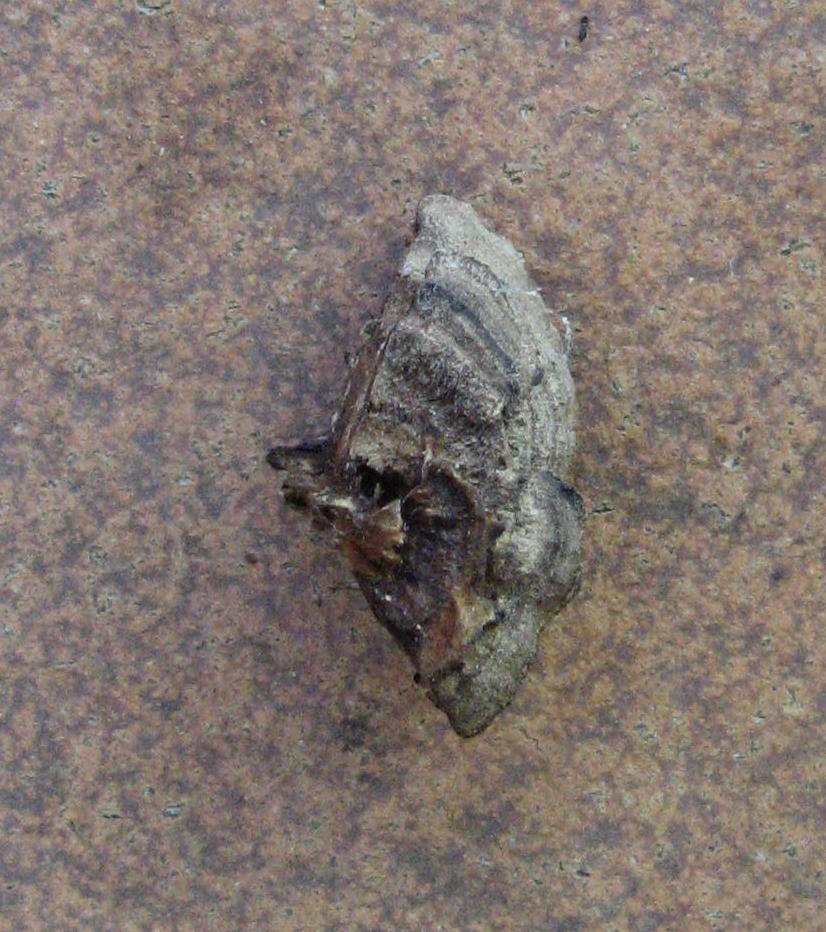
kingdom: Fungi
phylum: Basidiomycota
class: Agaricomycetes
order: Gloeophyllales
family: Gloeophyllaceae
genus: Gloeophyllum
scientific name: Gloeophyllum
